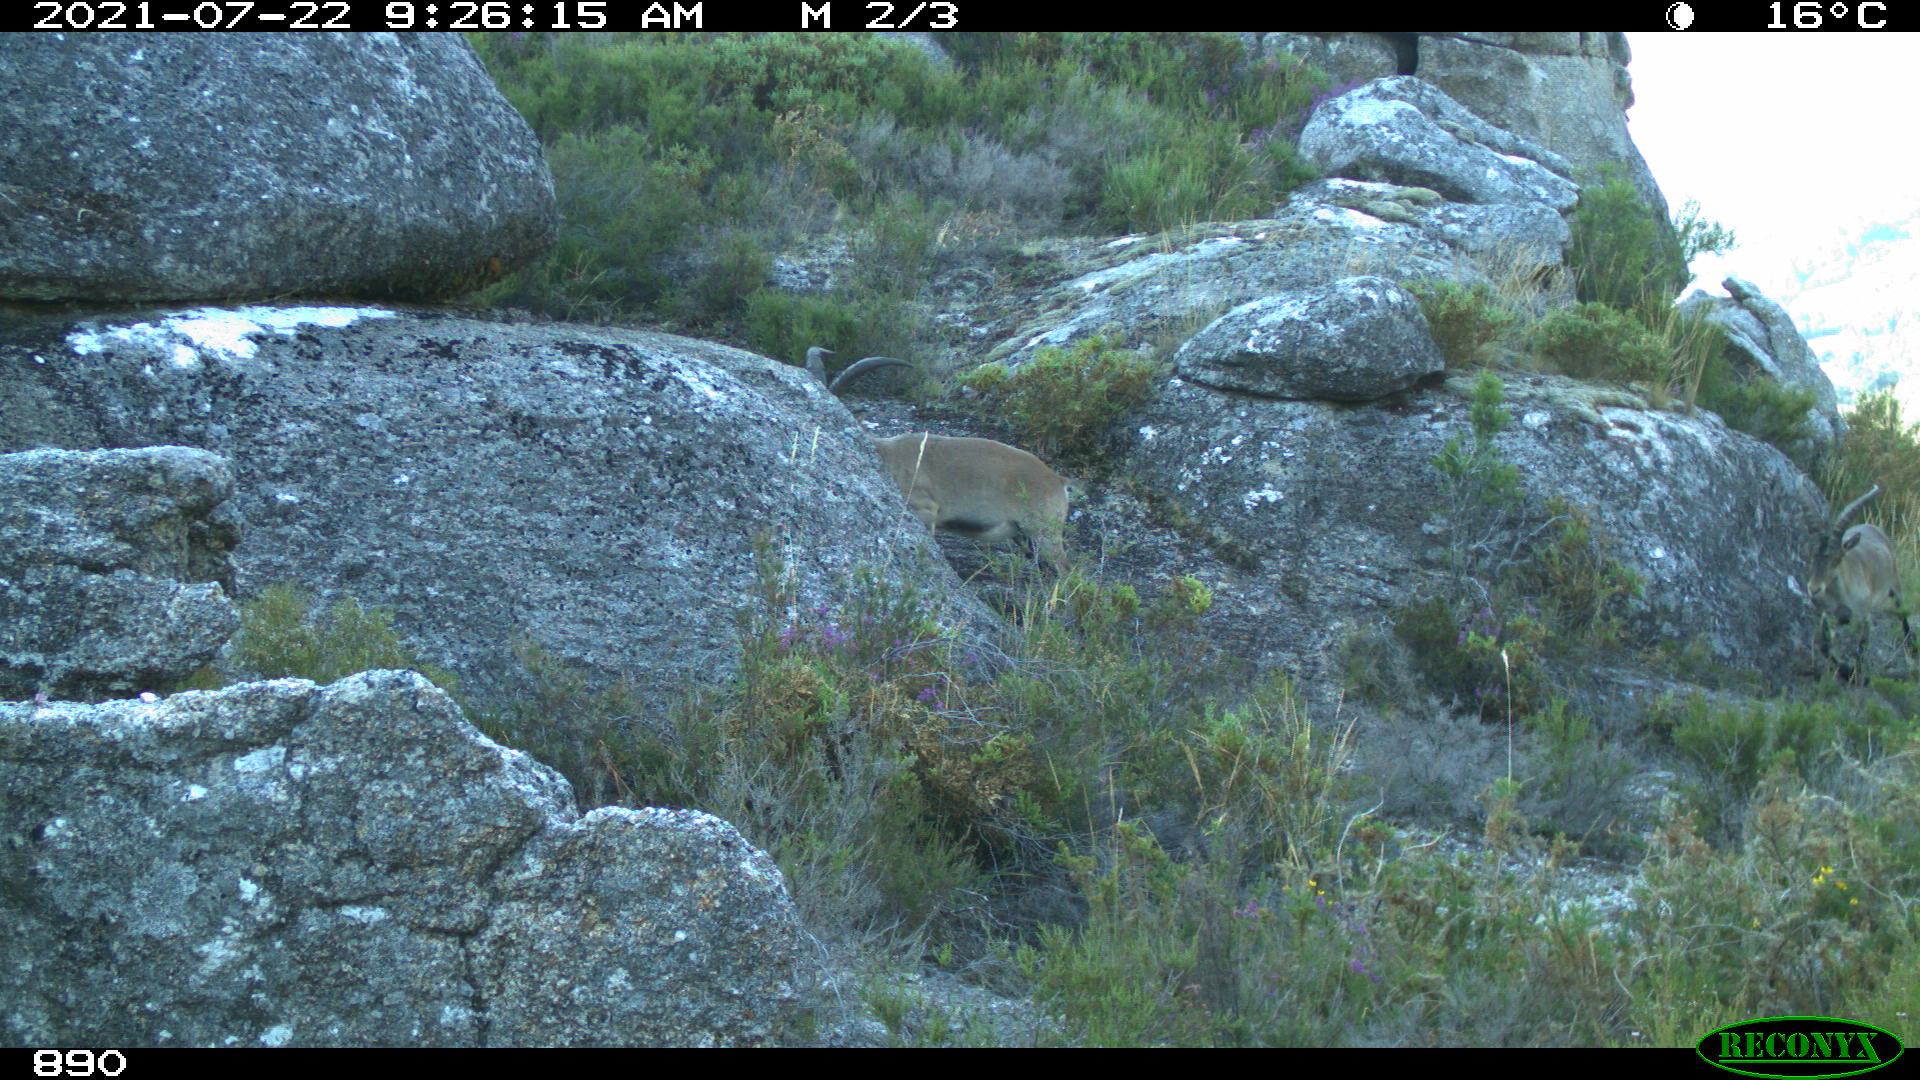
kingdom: Animalia
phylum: Chordata
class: Mammalia
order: Artiodactyla
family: Bovidae
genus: Capra
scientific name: Capra pyrenaica
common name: Spanish ibex
